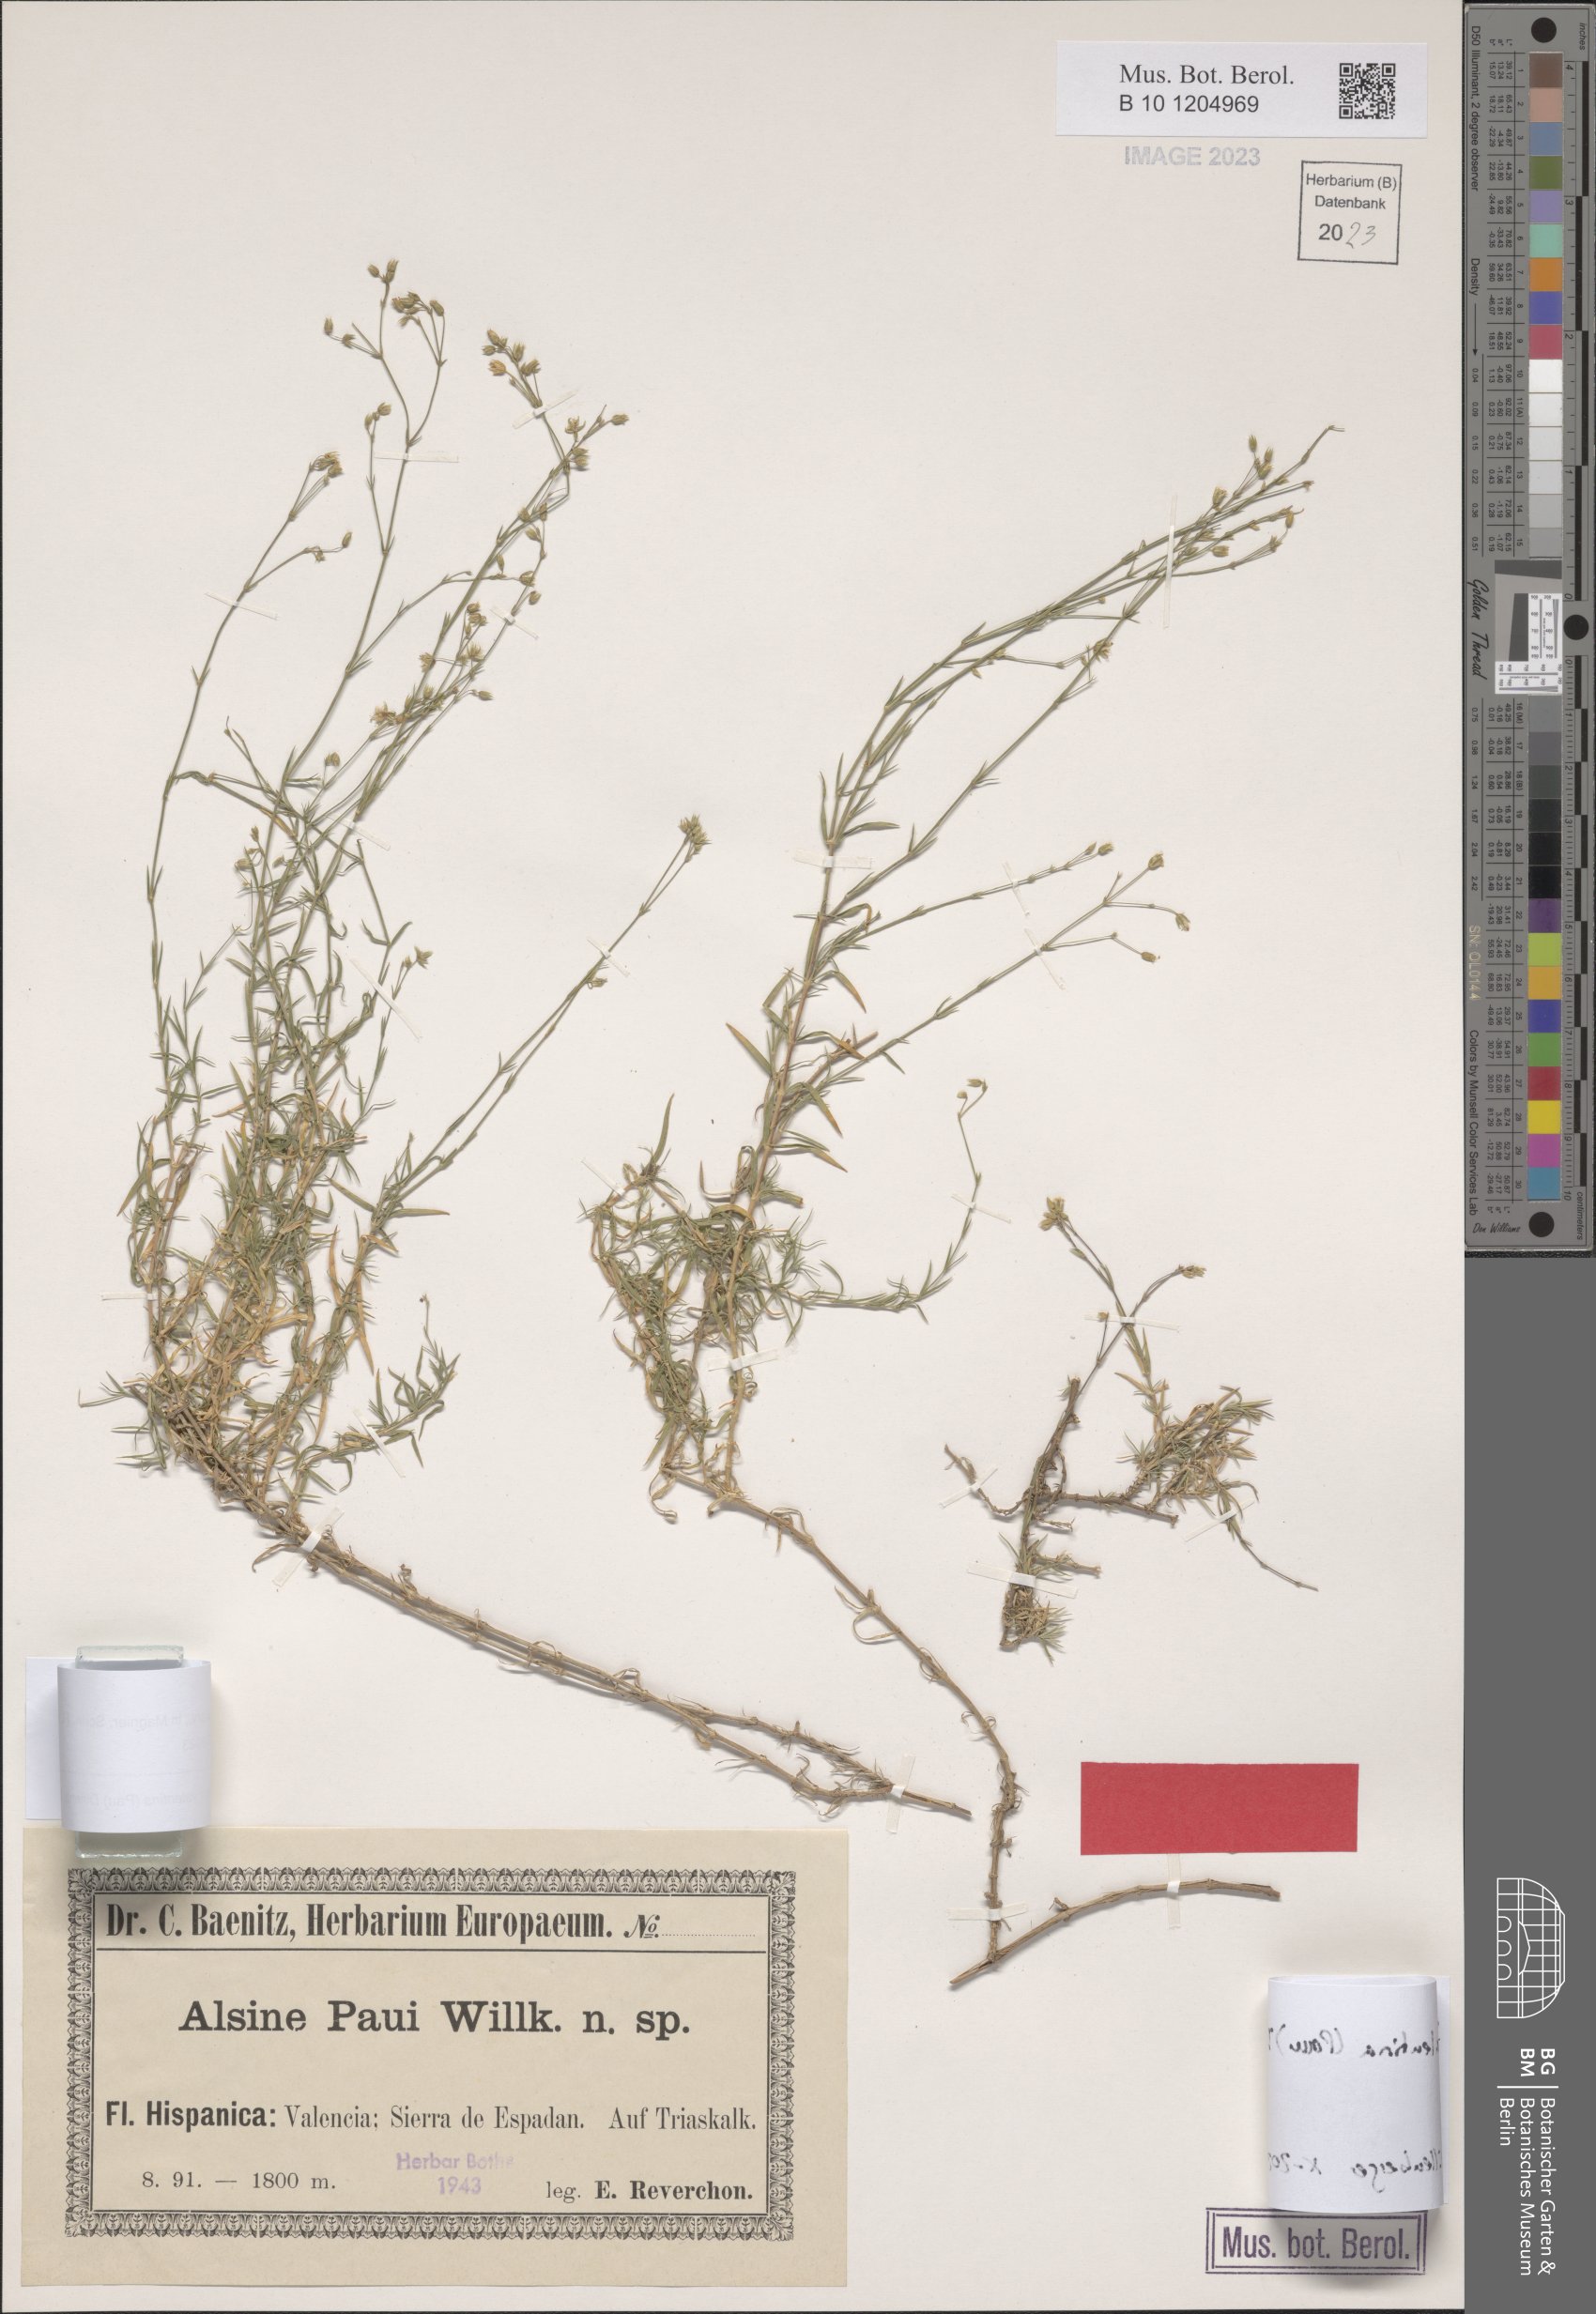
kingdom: Plantae
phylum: Tracheophyta
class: Magnoliopsida
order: Caryophyllales
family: Caryophyllaceae
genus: Facchinia
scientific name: Facchinia valentina
